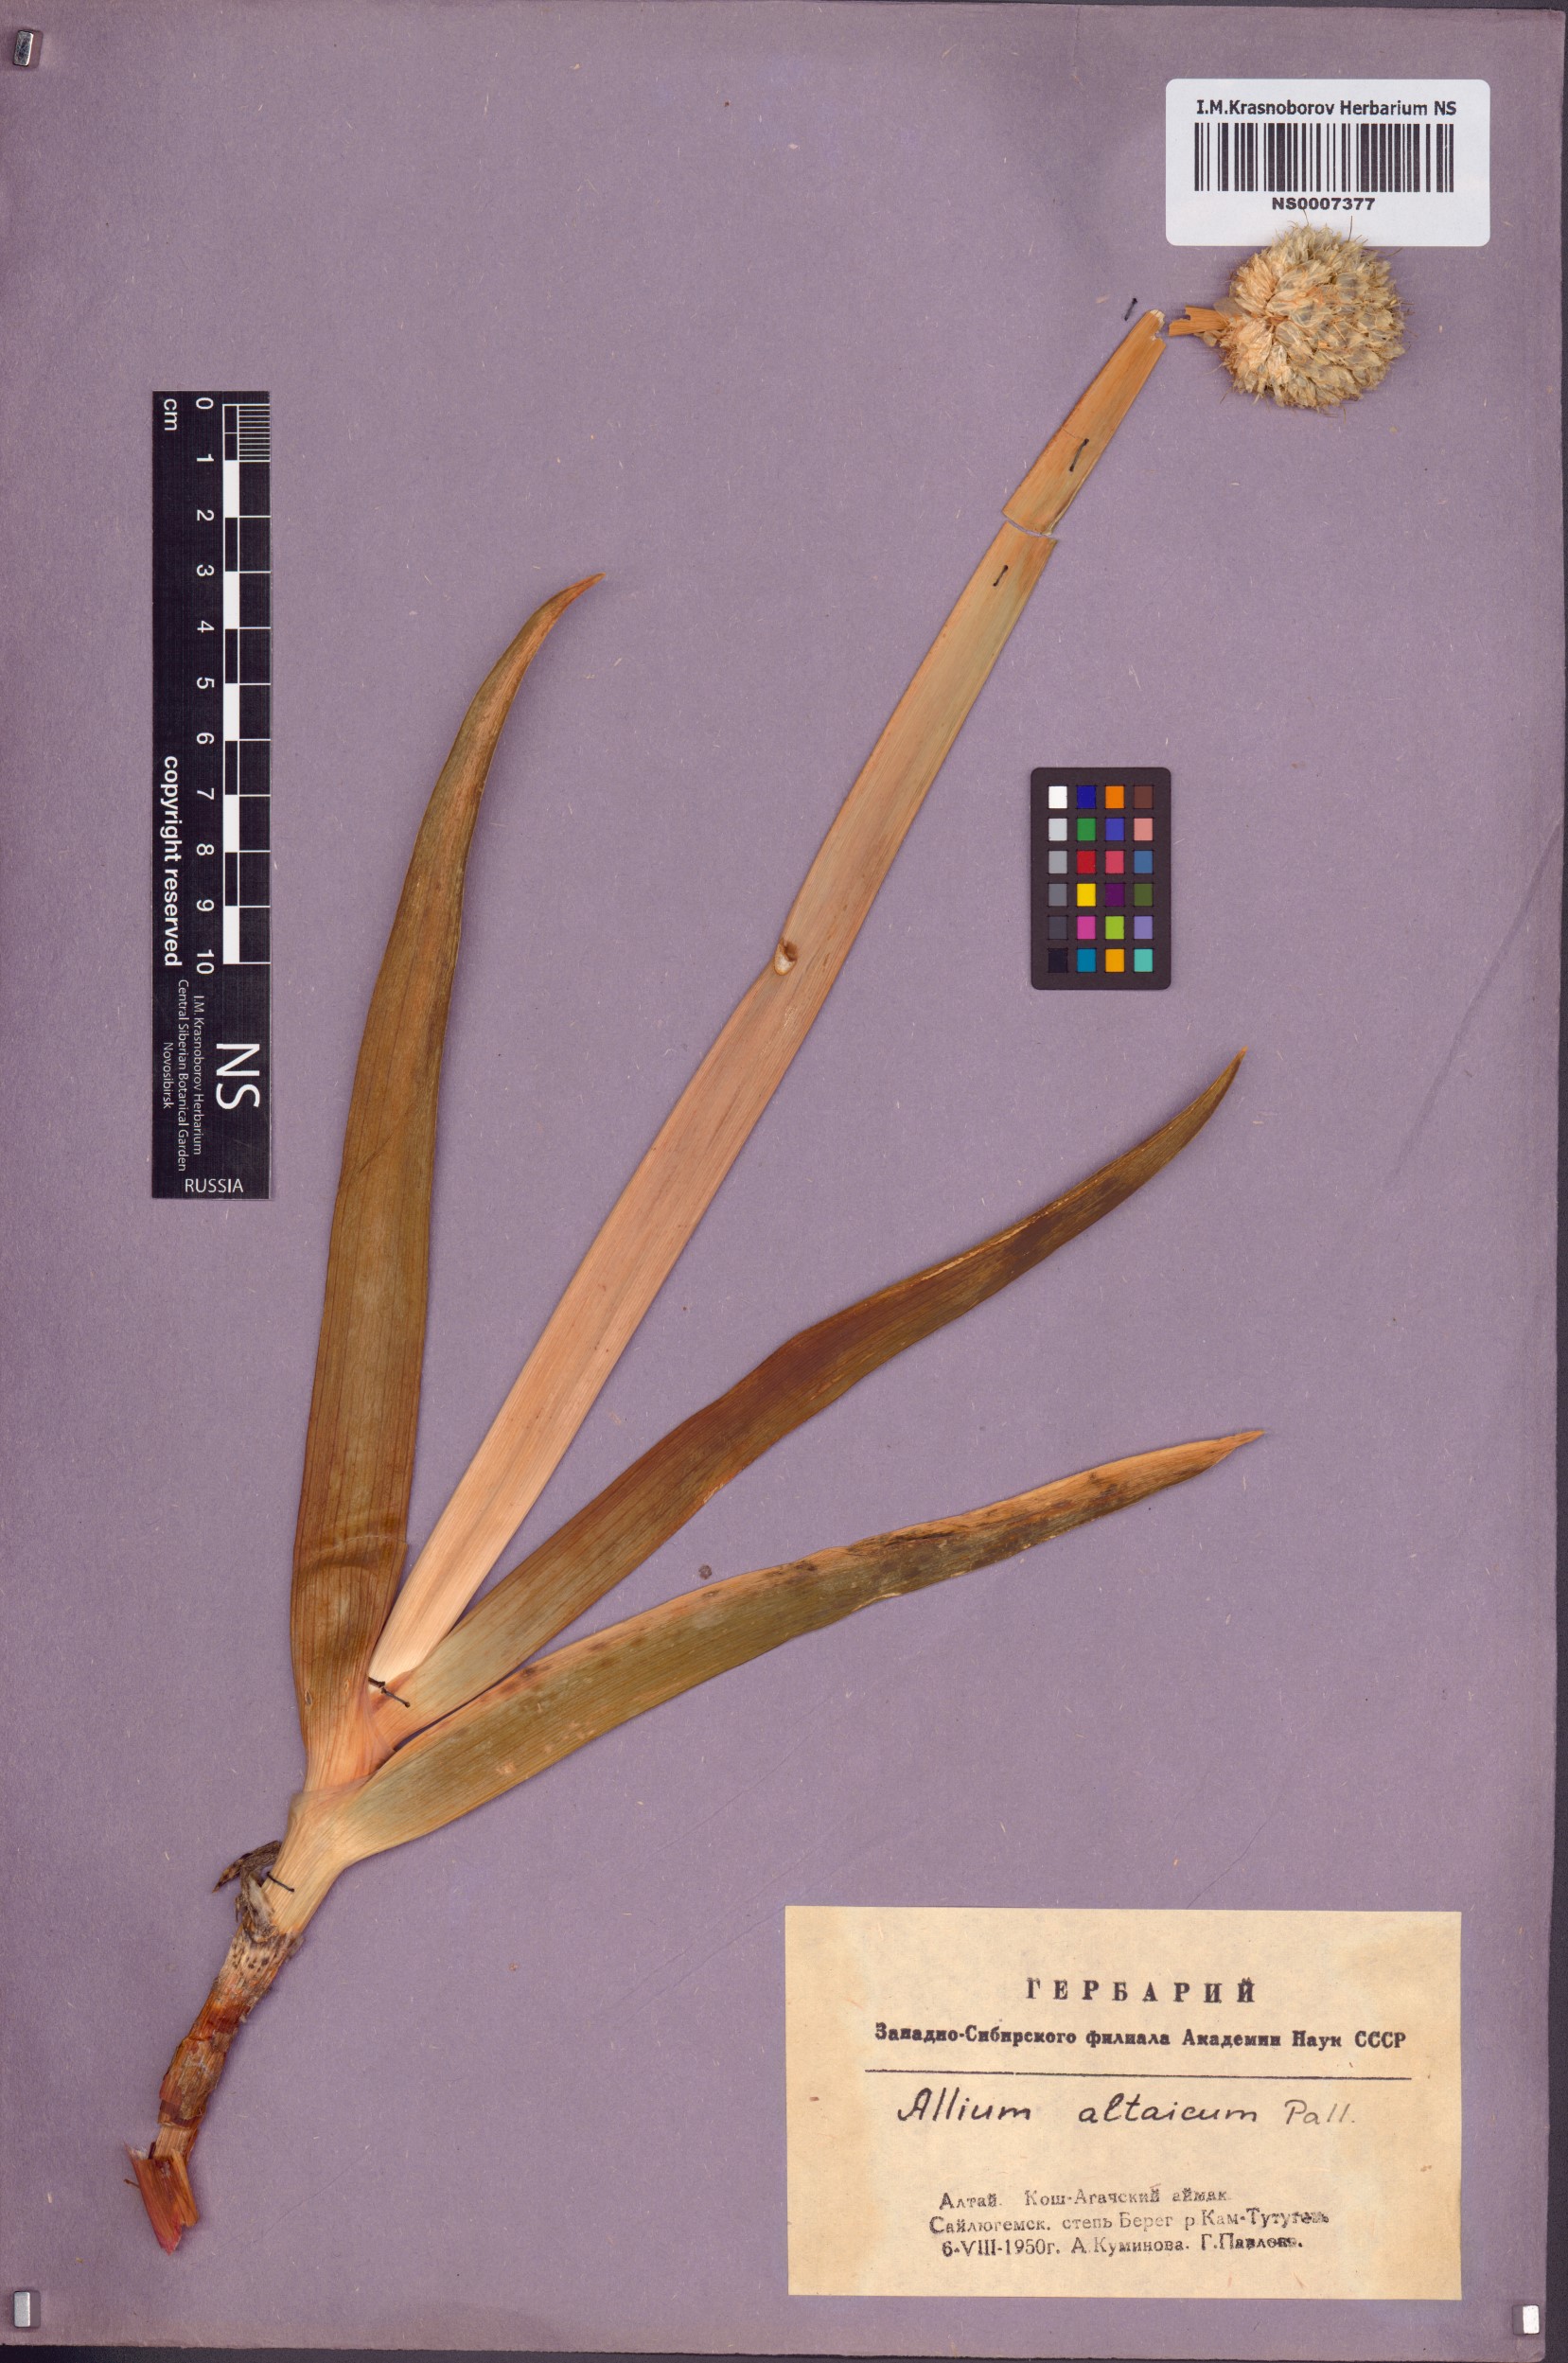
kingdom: Plantae
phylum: Tracheophyta
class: Liliopsida
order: Asparagales
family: Amaryllidaceae
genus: Allium
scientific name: Allium altaicum
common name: Altai onion
